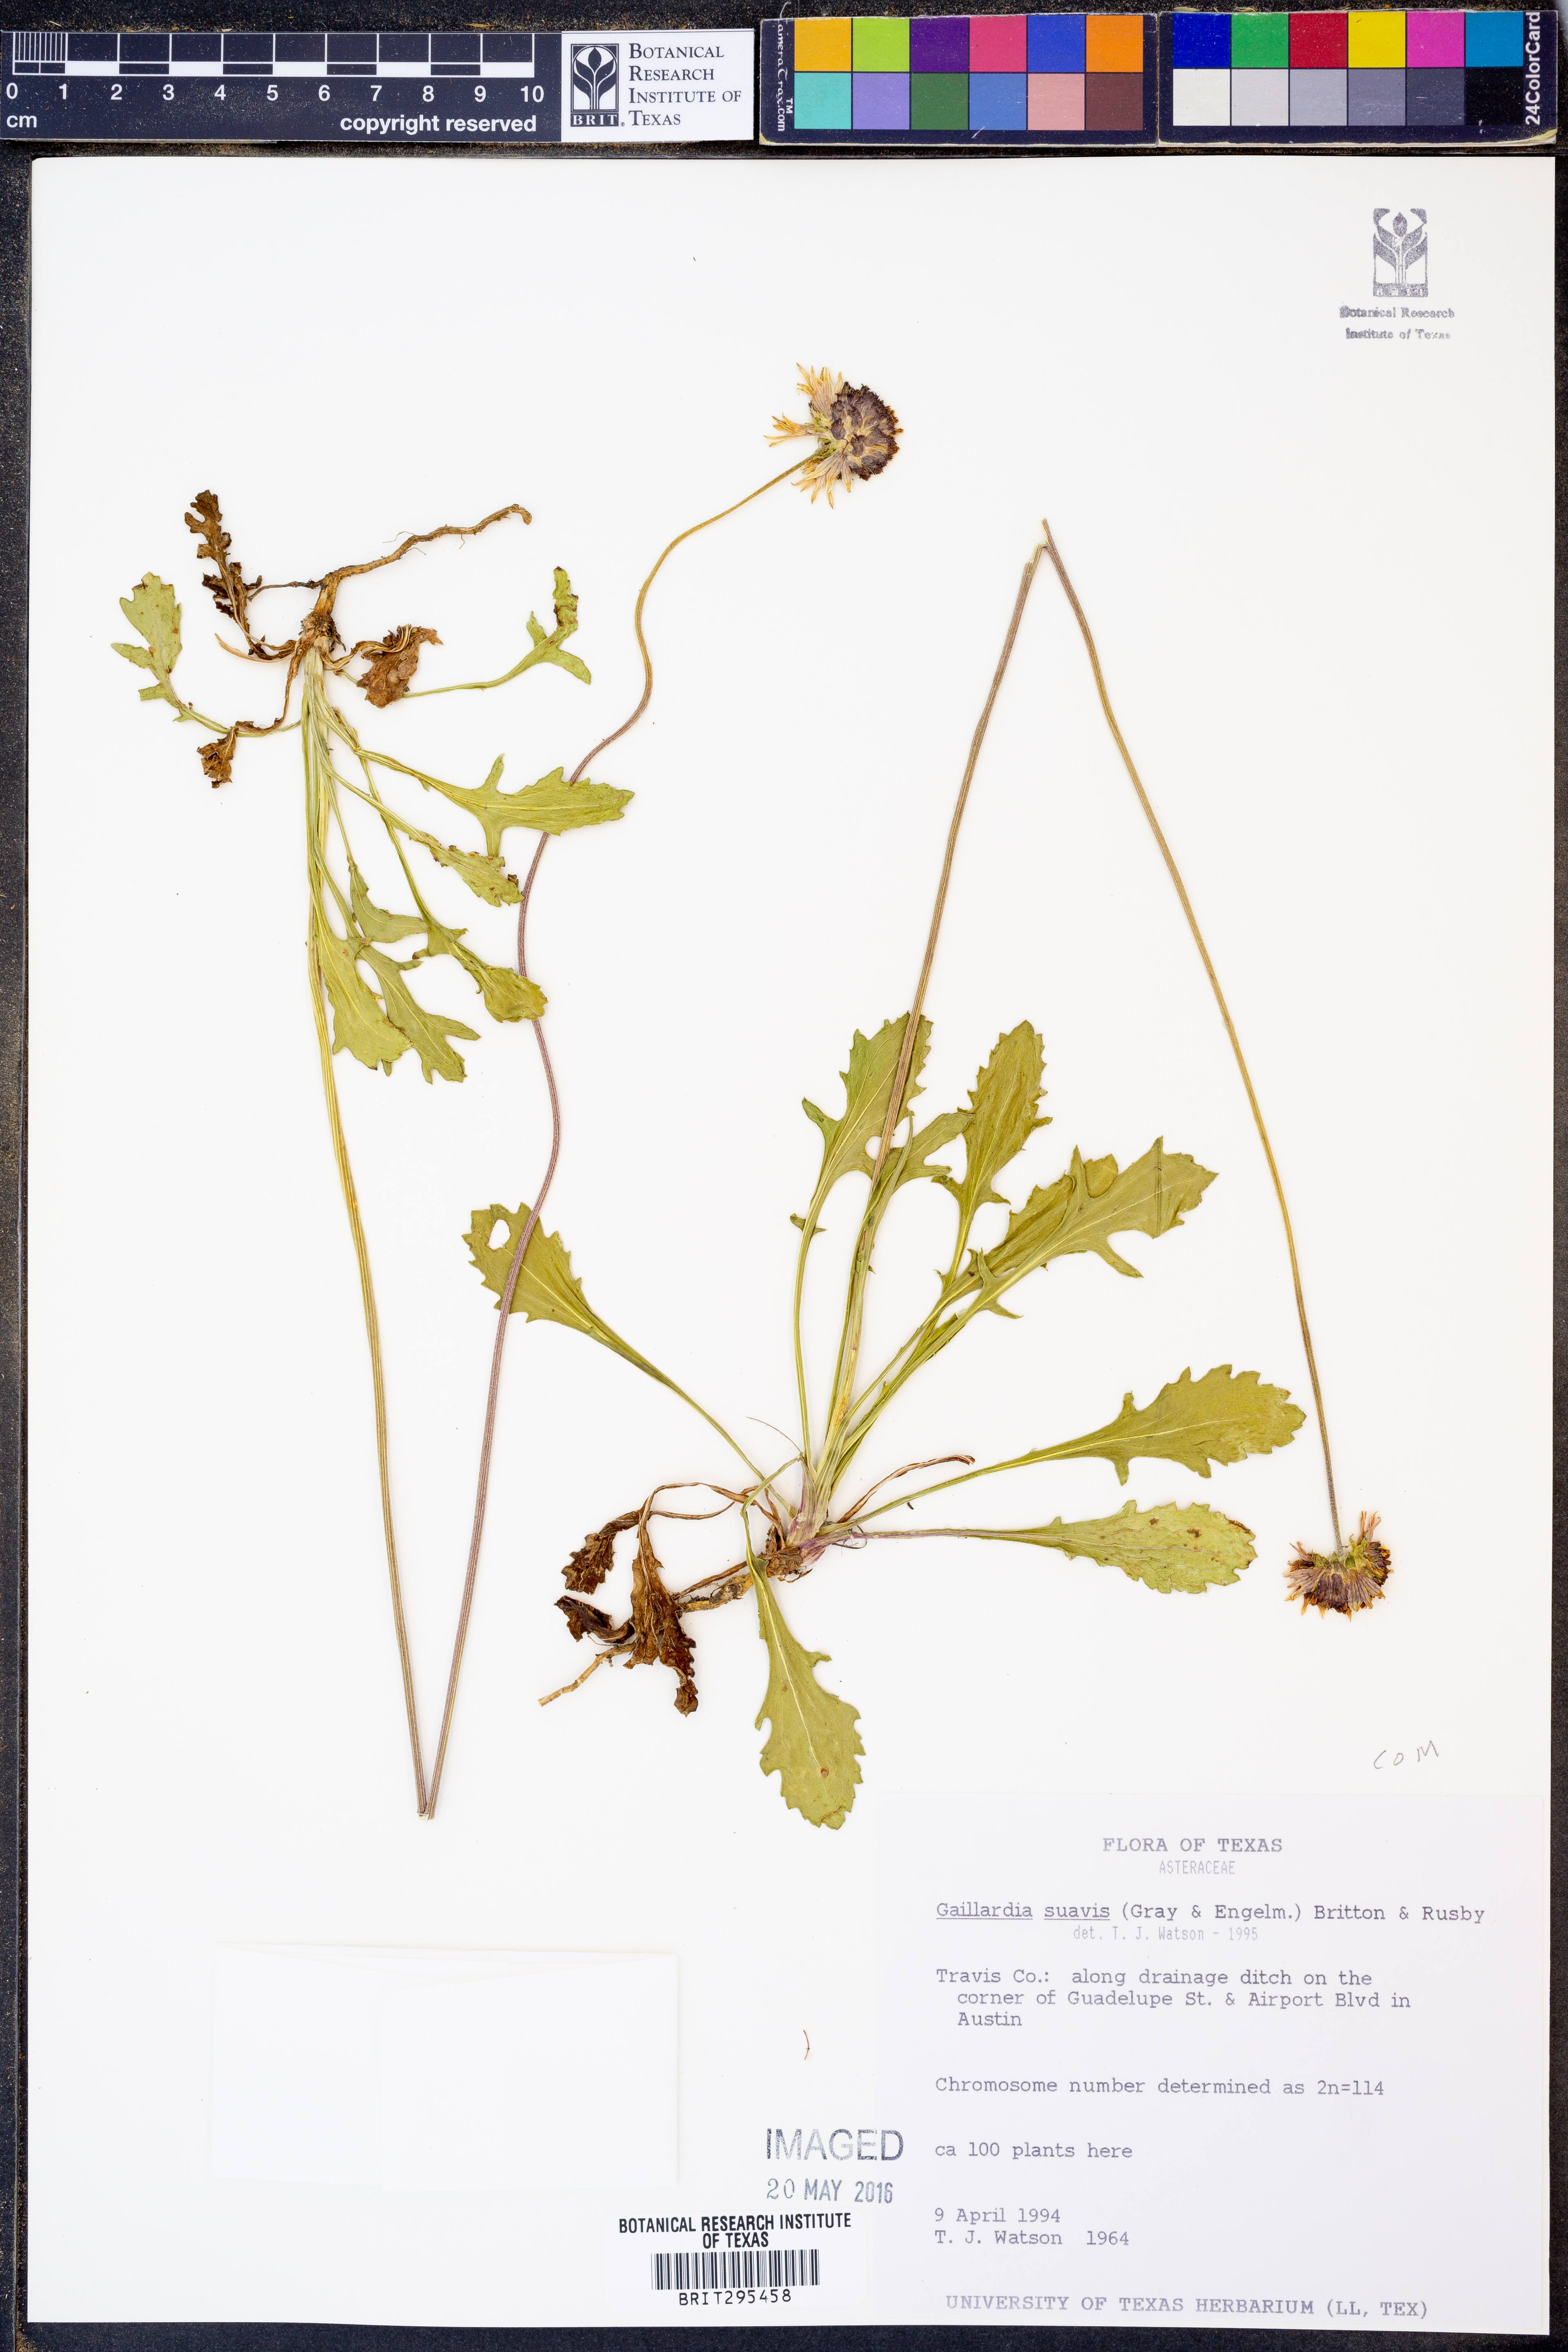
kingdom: Plantae
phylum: Tracheophyta
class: Magnoliopsida
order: Asterales
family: Asteraceae
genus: Gaillardia
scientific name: Gaillardia suavis
